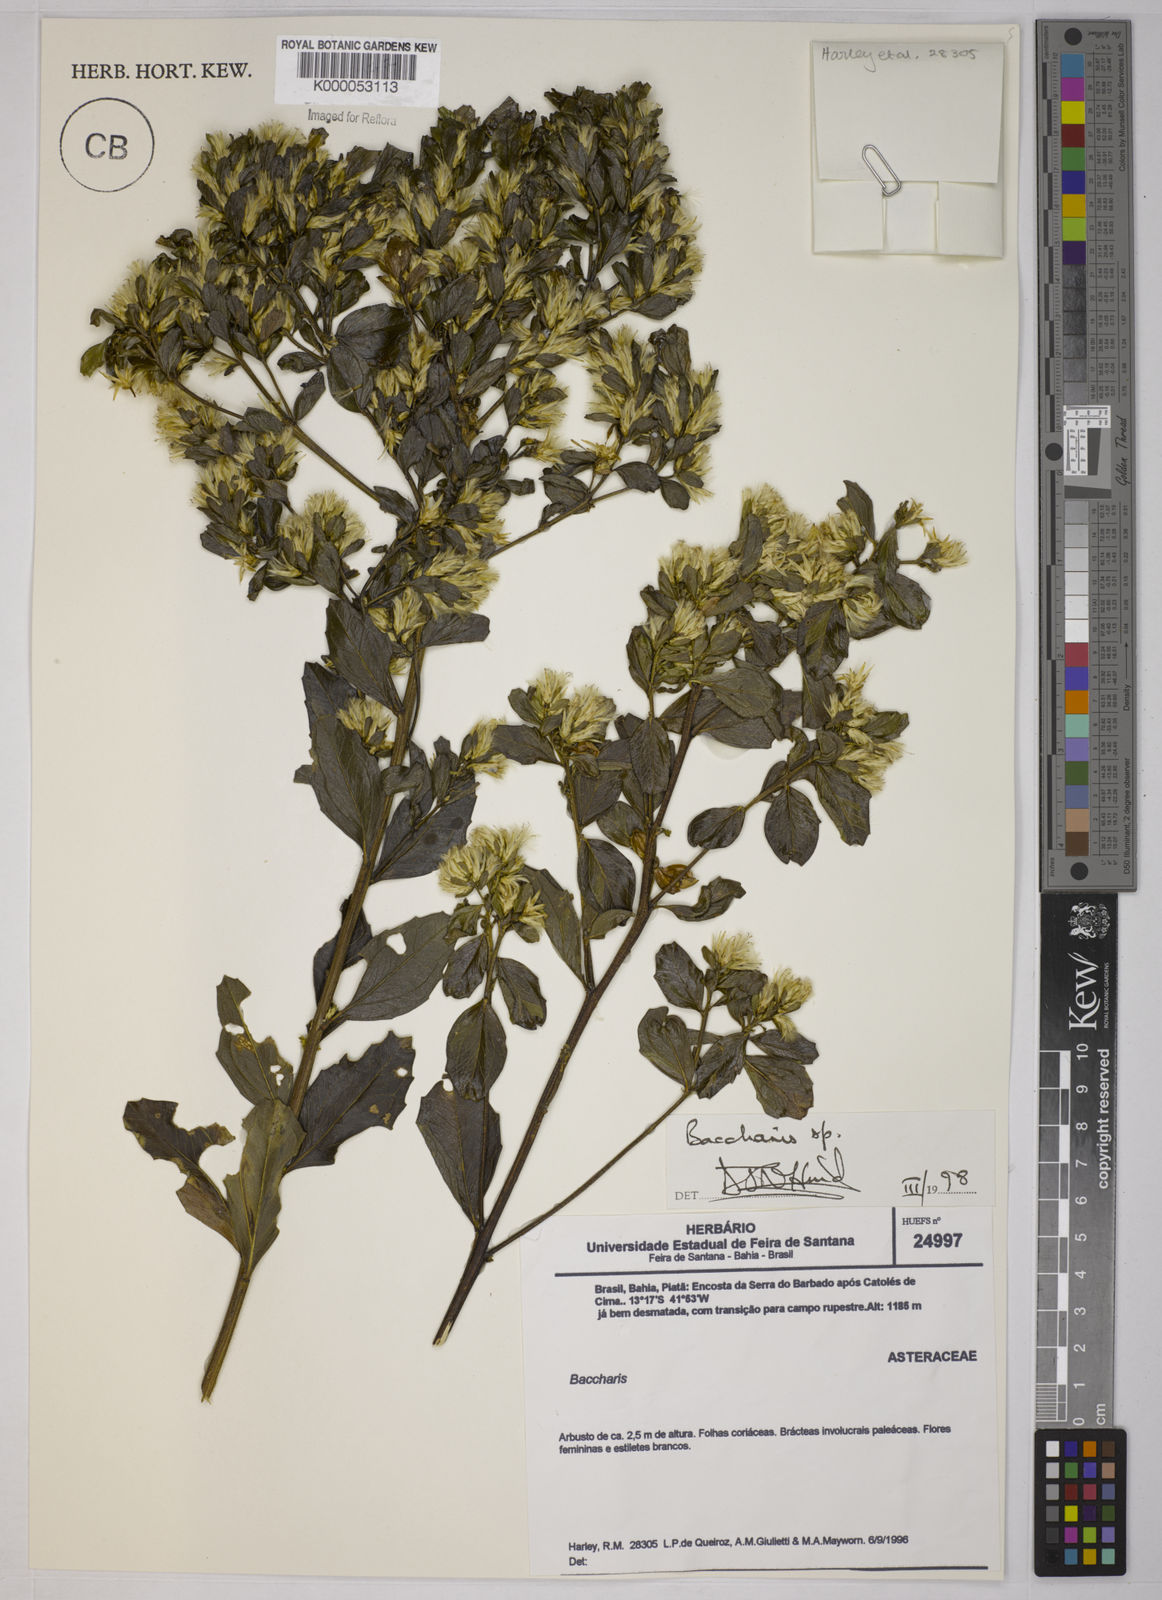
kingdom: Plantae
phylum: Tracheophyta
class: Magnoliopsida
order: Asterales
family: Asteraceae
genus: Baccharis
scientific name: Baccharis retusa
